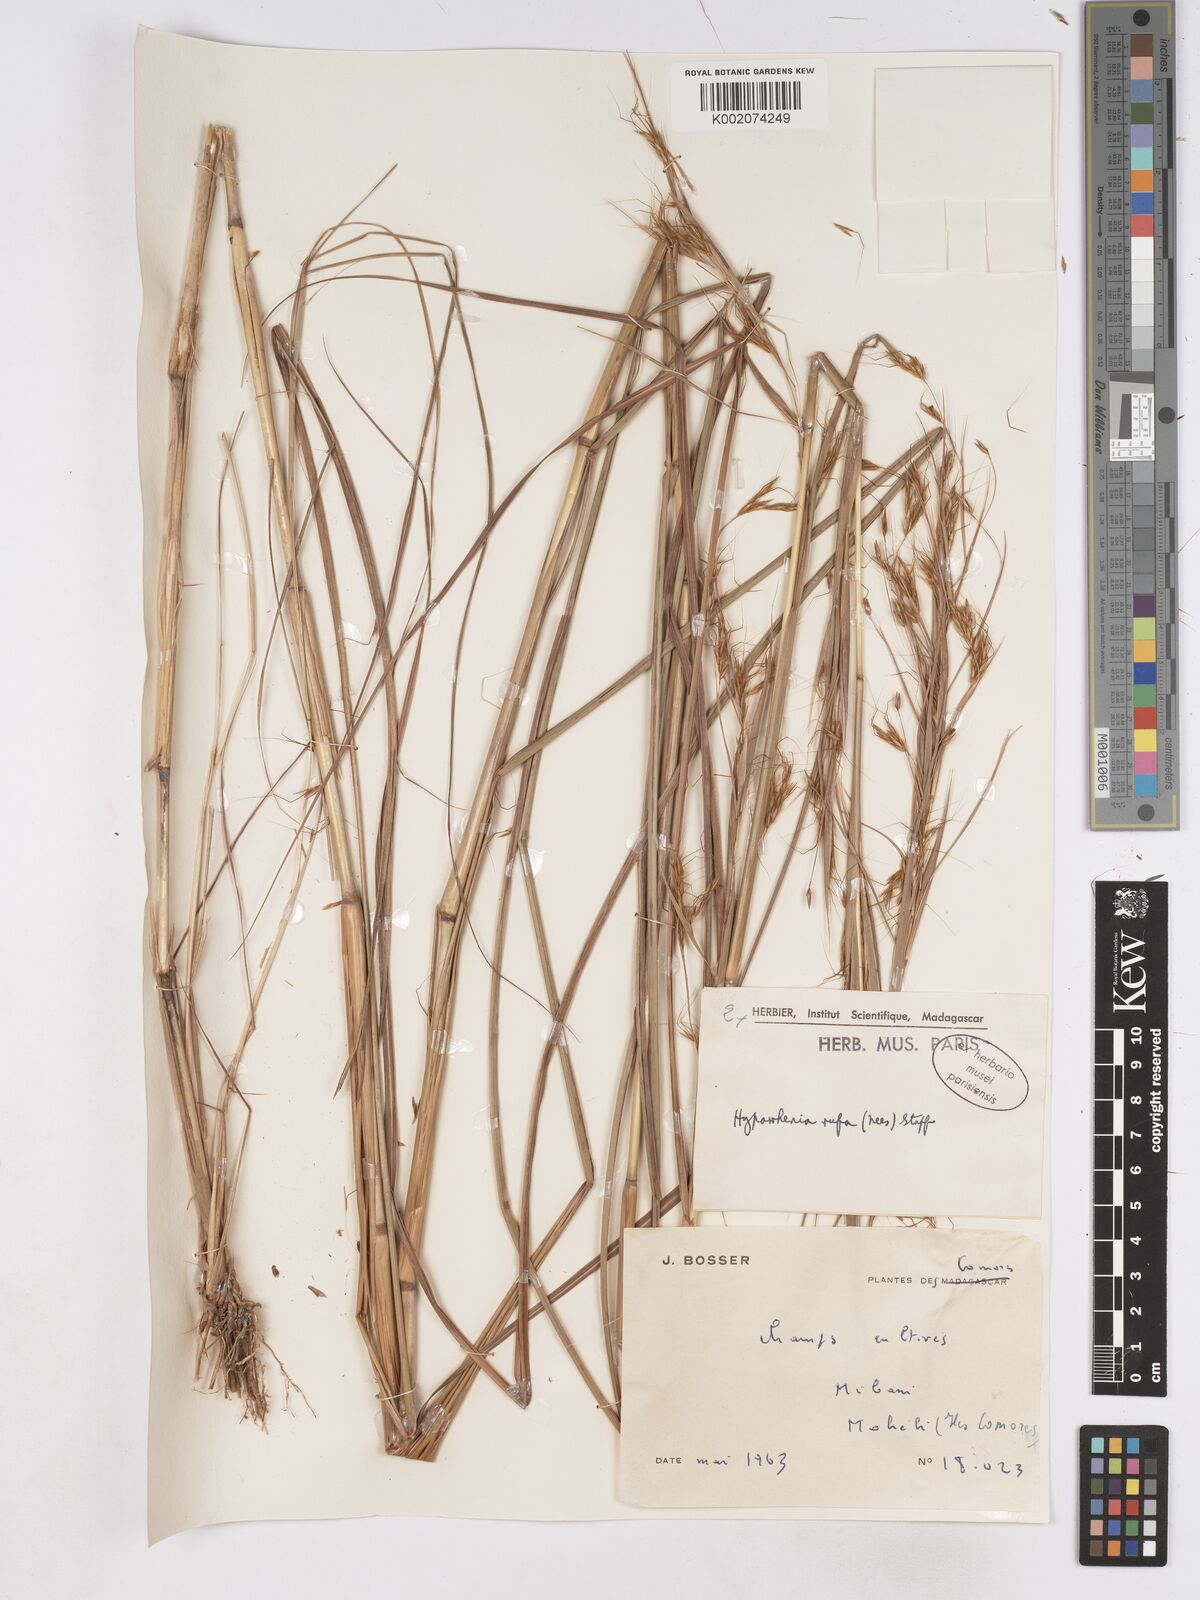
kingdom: Plantae
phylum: Tracheophyta
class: Liliopsida
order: Poales
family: Poaceae
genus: Hyparrhenia
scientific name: Hyparrhenia rufa
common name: Jaraguagrass
